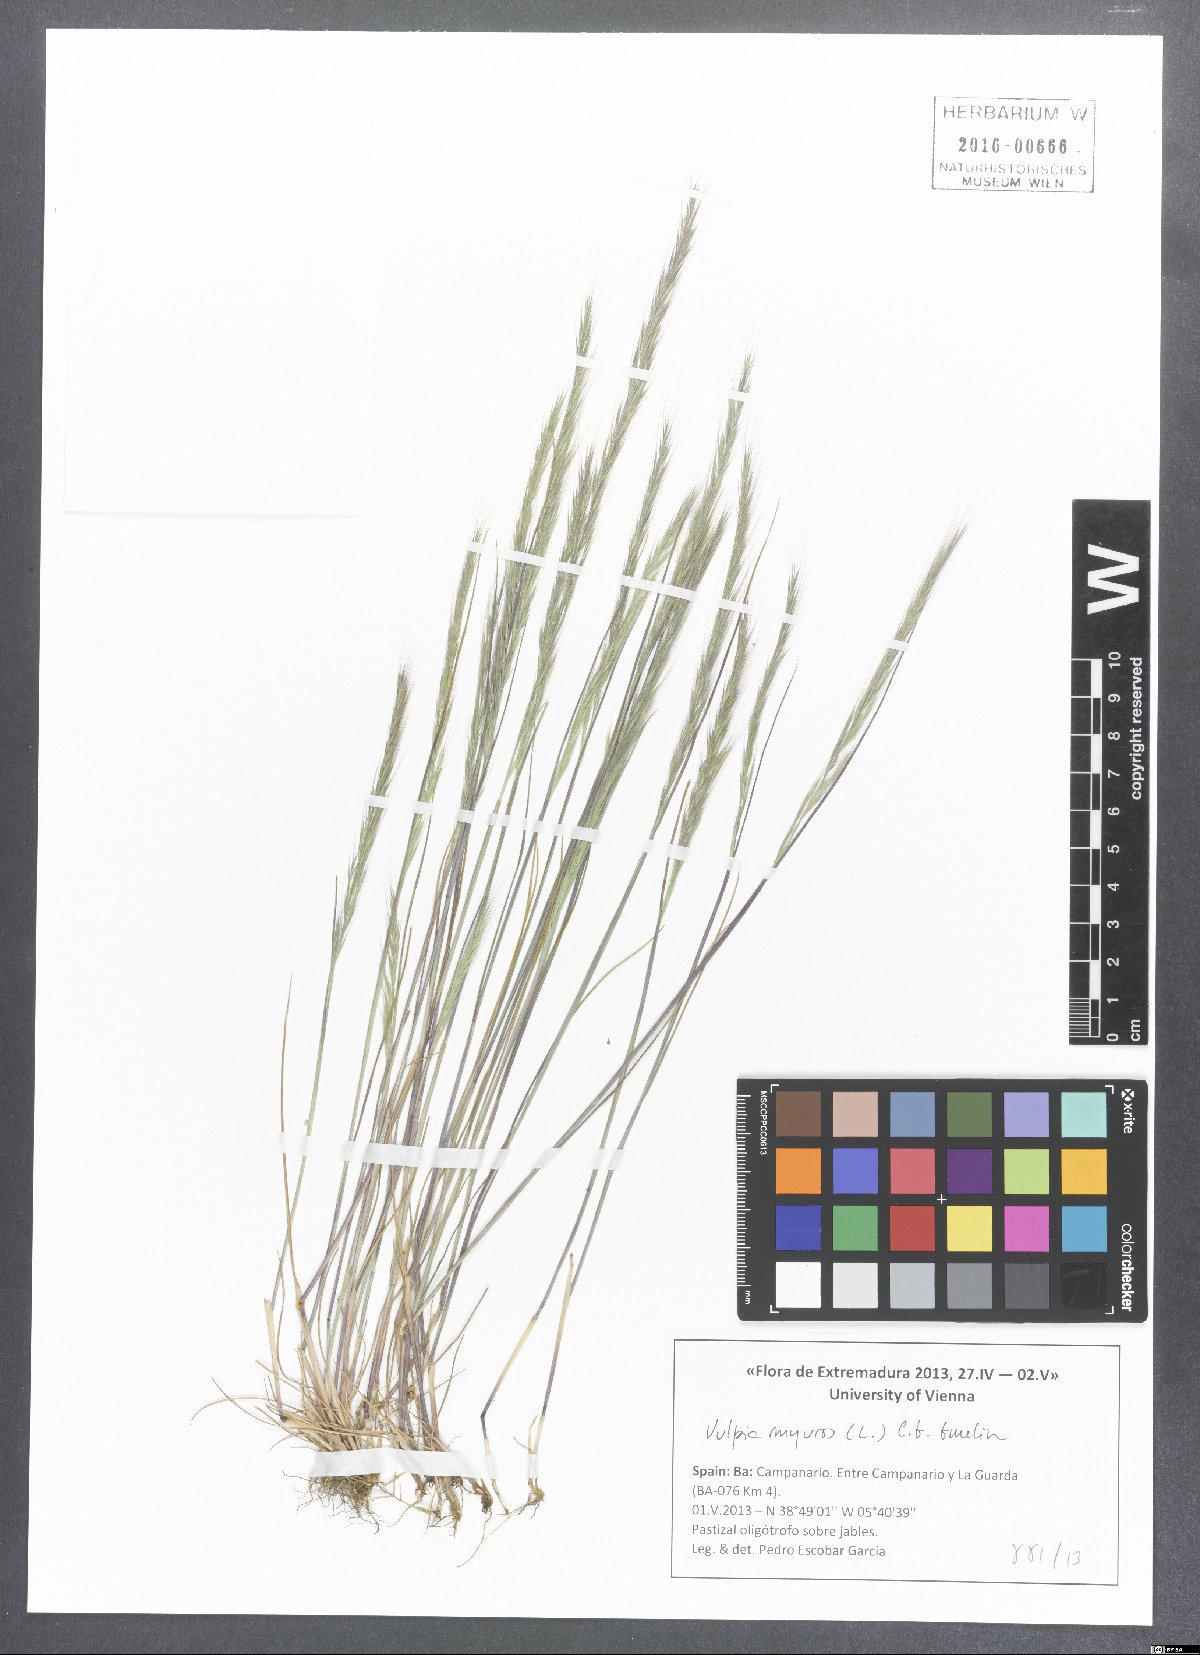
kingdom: Plantae
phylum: Tracheophyta
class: Liliopsida
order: Poales
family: Poaceae
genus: Festuca
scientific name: Festuca myuros
